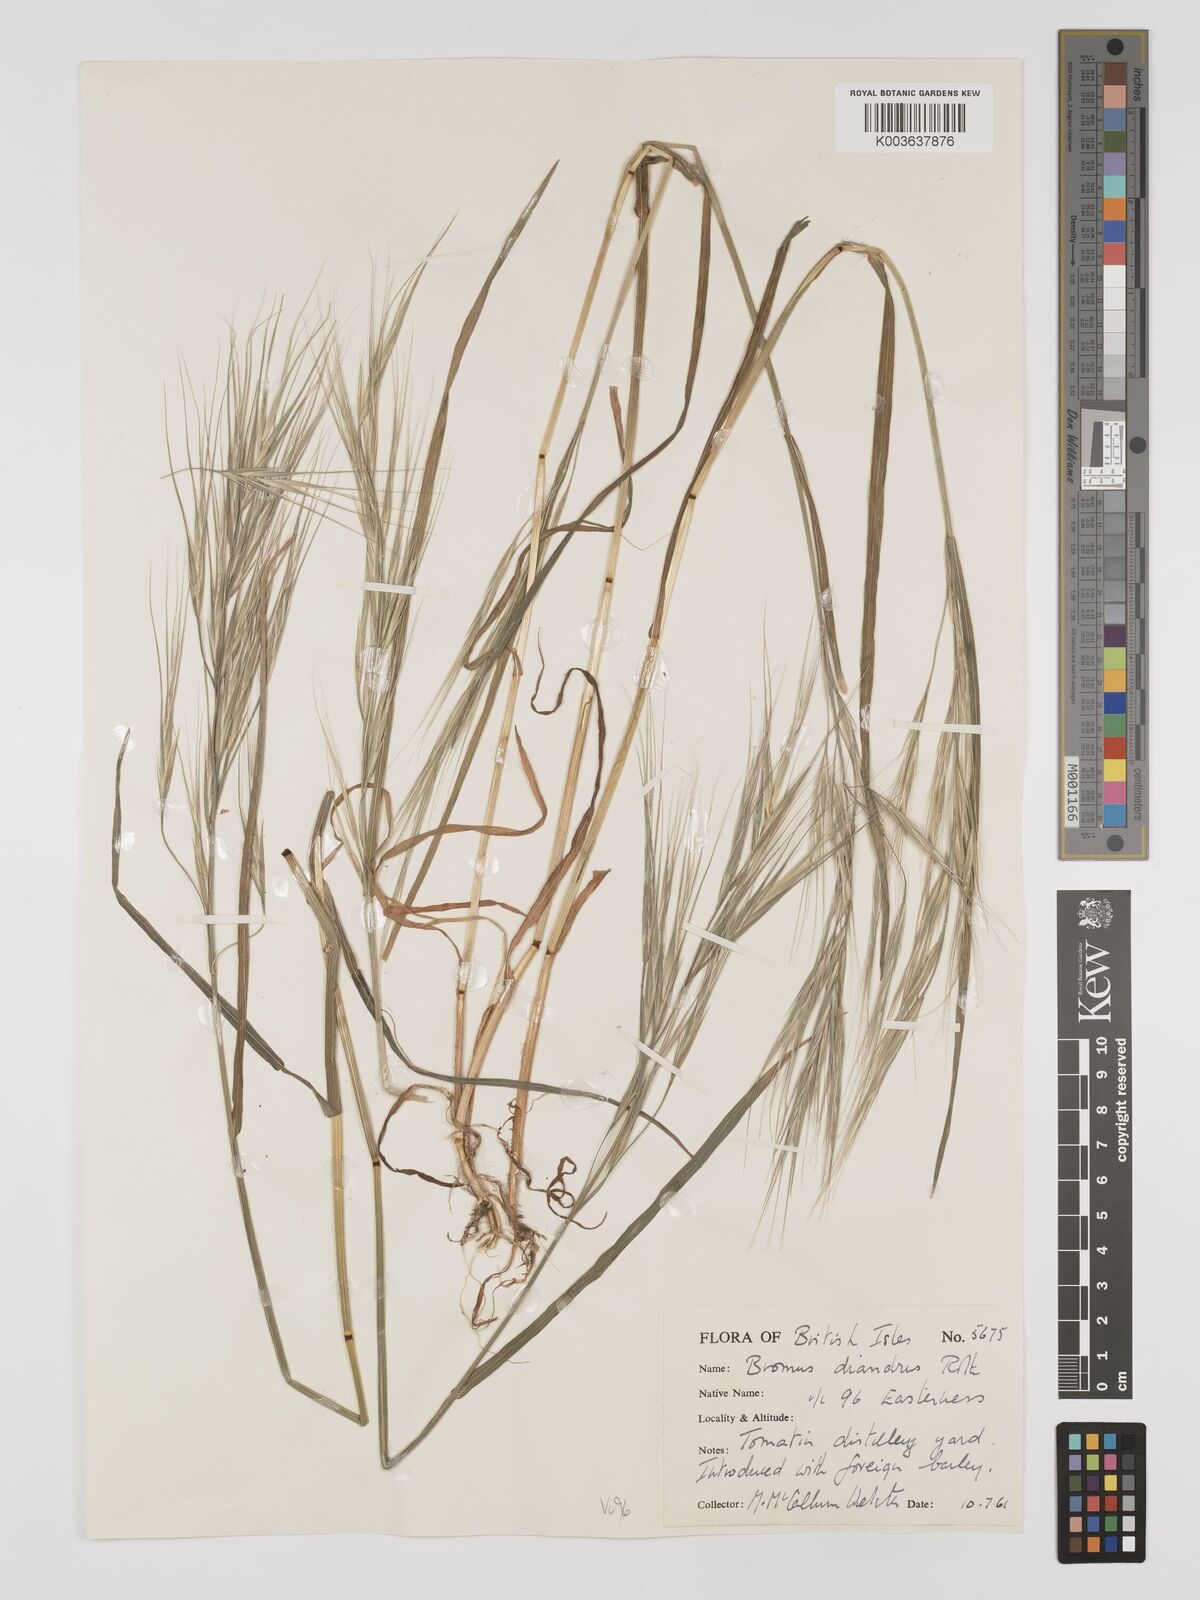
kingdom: Plantae
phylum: Tracheophyta
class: Liliopsida
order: Poales
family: Poaceae
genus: Bromus
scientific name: Bromus
